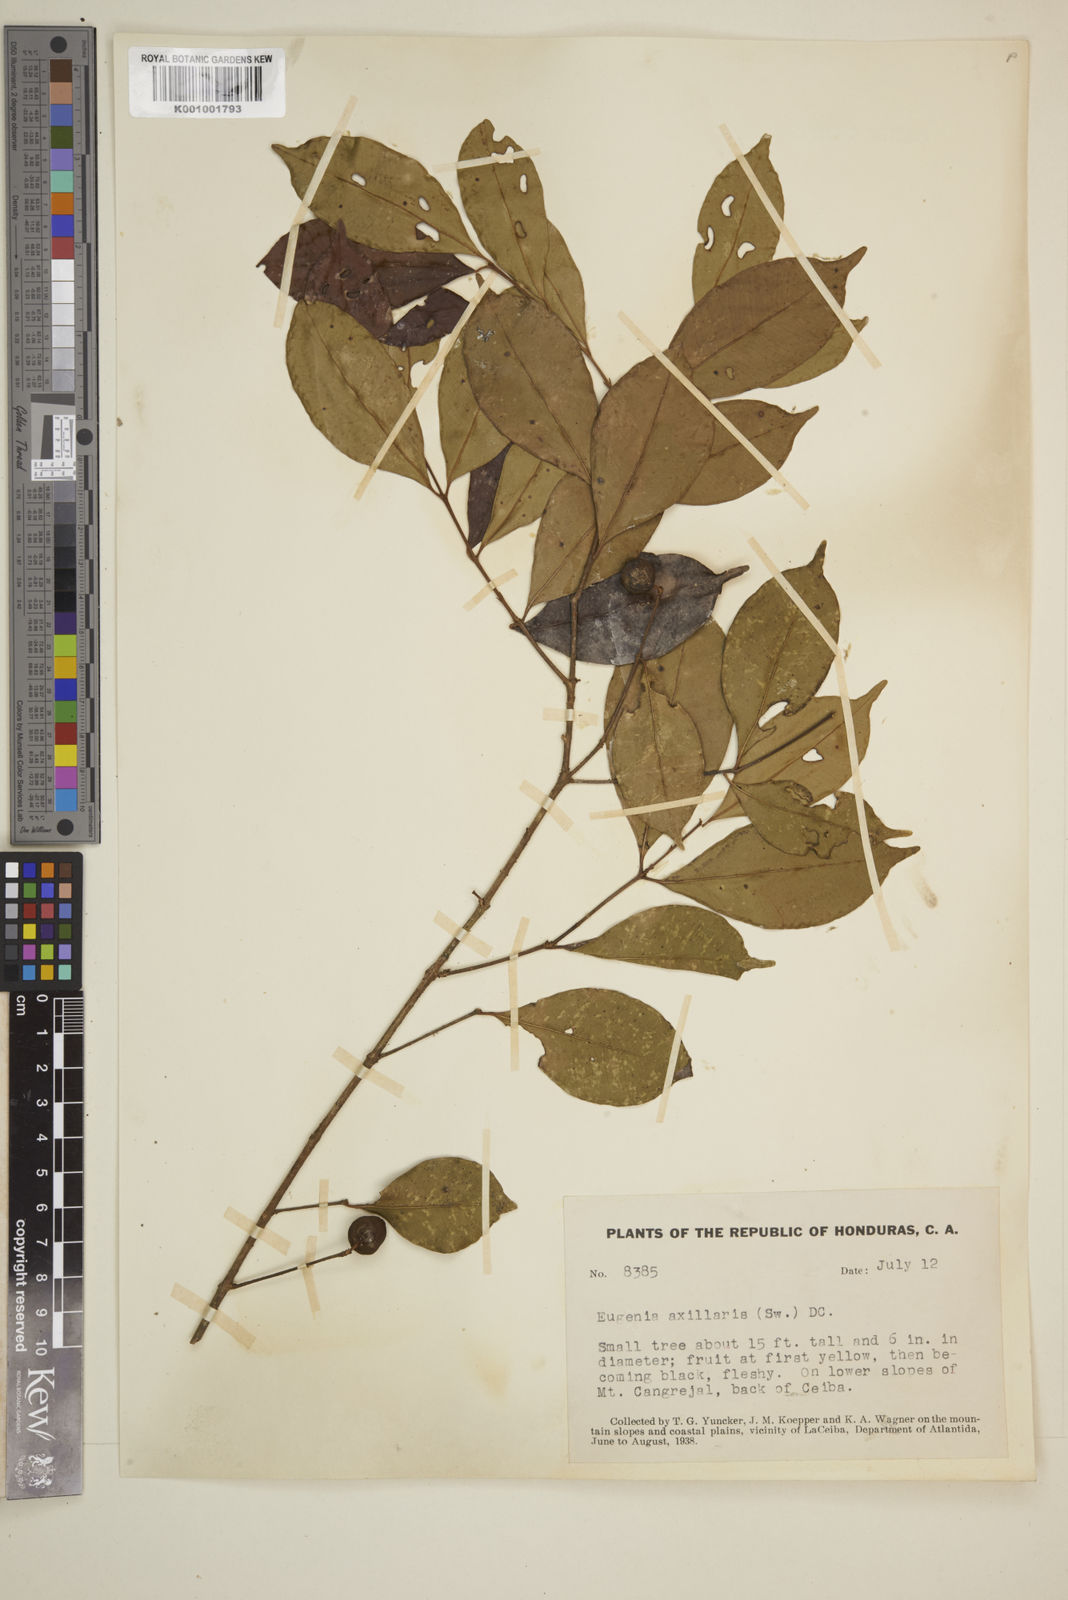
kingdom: Plantae
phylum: Tracheophyta
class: Magnoliopsida
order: Myrtales
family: Myrtaceae
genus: Eugenia
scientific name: Eugenia axillaris
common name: Choaky berry
